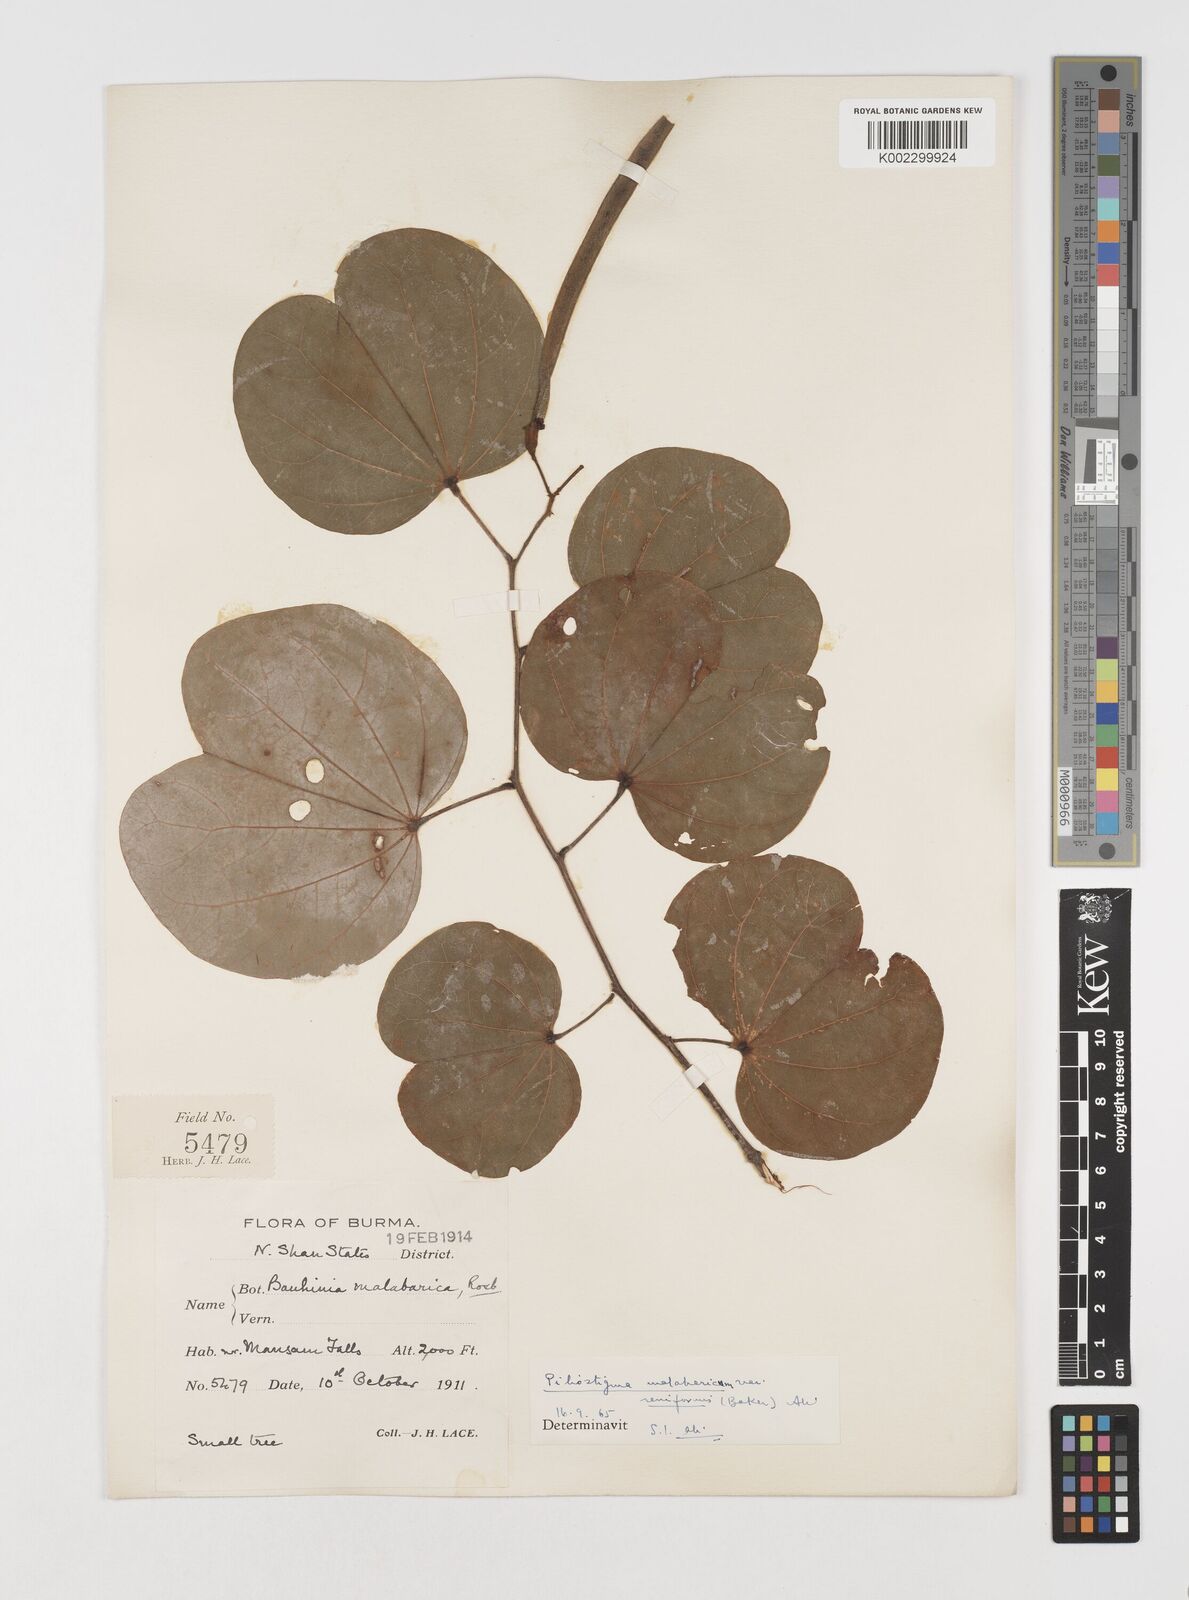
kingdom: Plantae
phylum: Tracheophyta
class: Magnoliopsida
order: Fabales
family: Fabaceae
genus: Piliostigma
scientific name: Piliostigma malabaricum
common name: Malabar bauhinia
